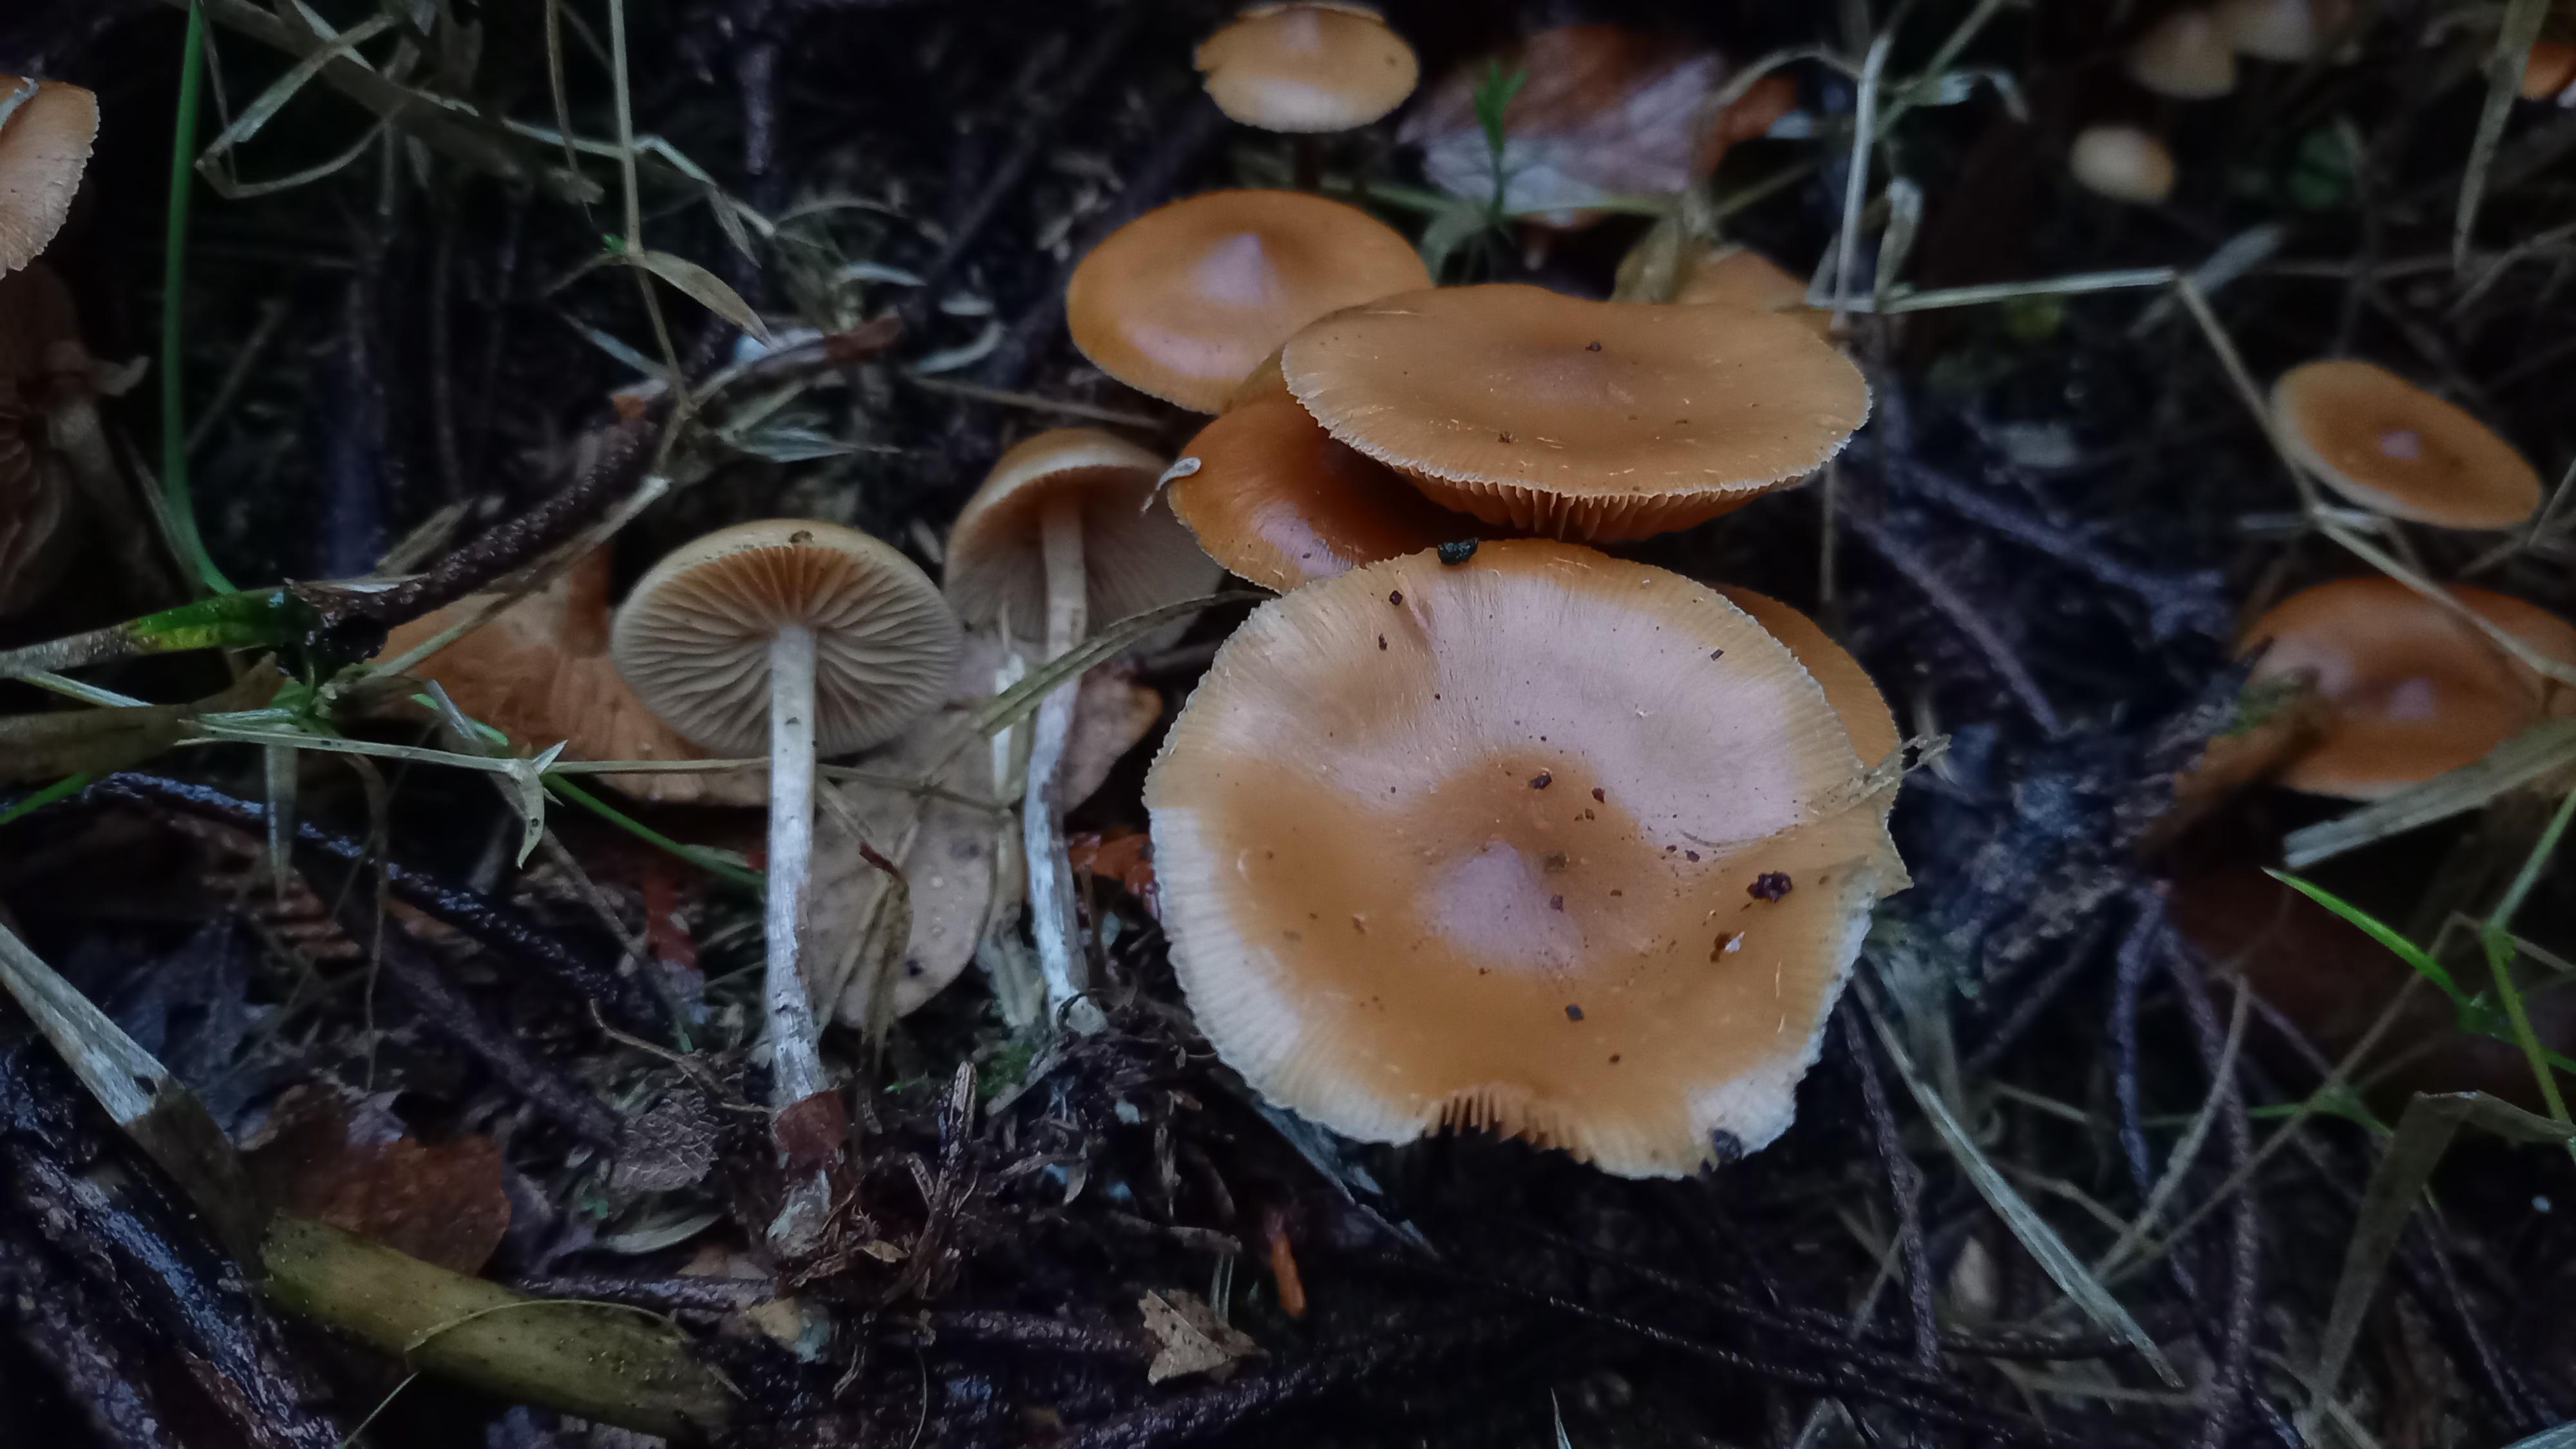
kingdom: Fungi
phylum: Basidiomycota
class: Agaricomycetes
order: Agaricales
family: Hymenogastraceae
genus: Galerina
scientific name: Galerina sideroides
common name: træflis-hjelmhat
